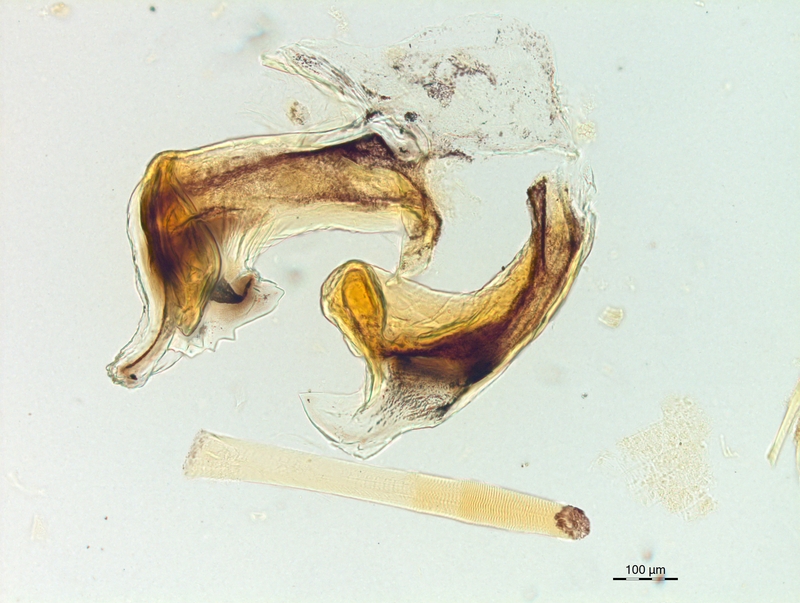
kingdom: Animalia
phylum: Arthropoda
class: Diplopoda
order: Chordeumatida
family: Craspedosomatidae
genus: Craspedosoma
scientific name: Craspedosoma rawlinsii
